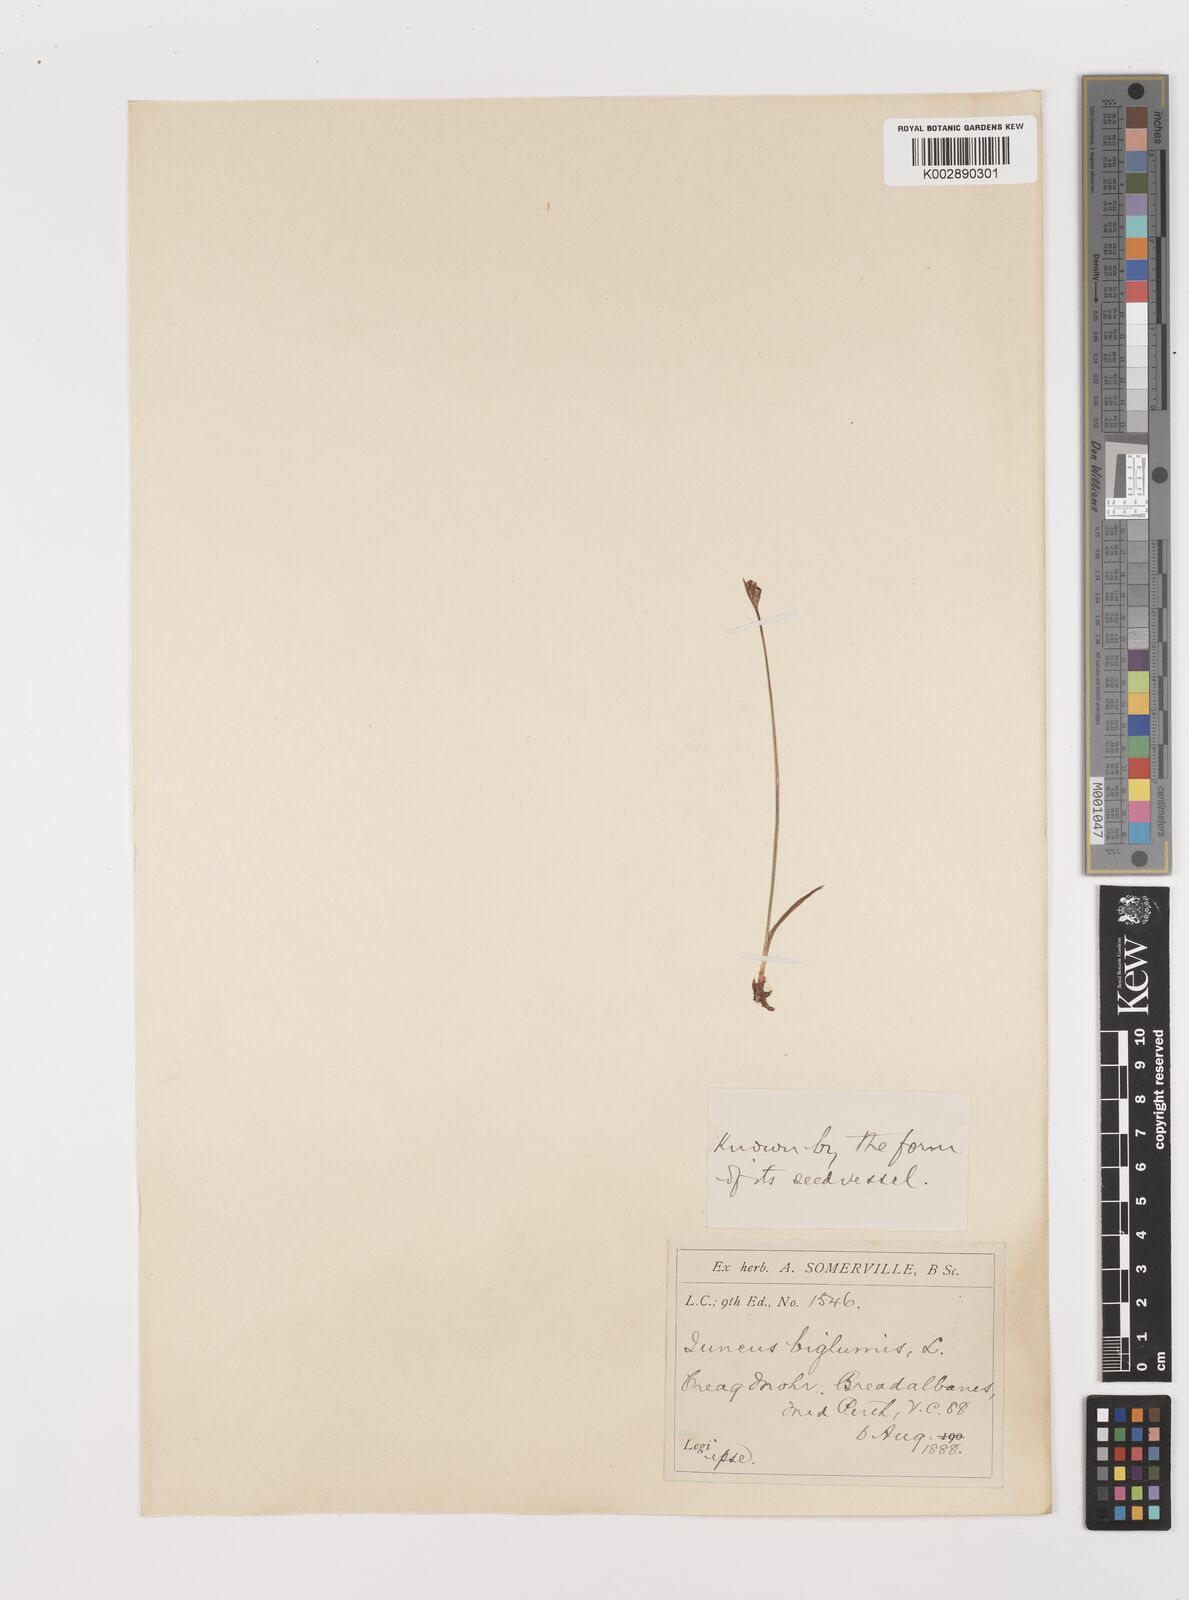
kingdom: Plantae
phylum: Tracheophyta
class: Liliopsida
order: Poales
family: Juncaceae
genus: Juncus
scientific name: Juncus biglumis
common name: Two-flowered rush
